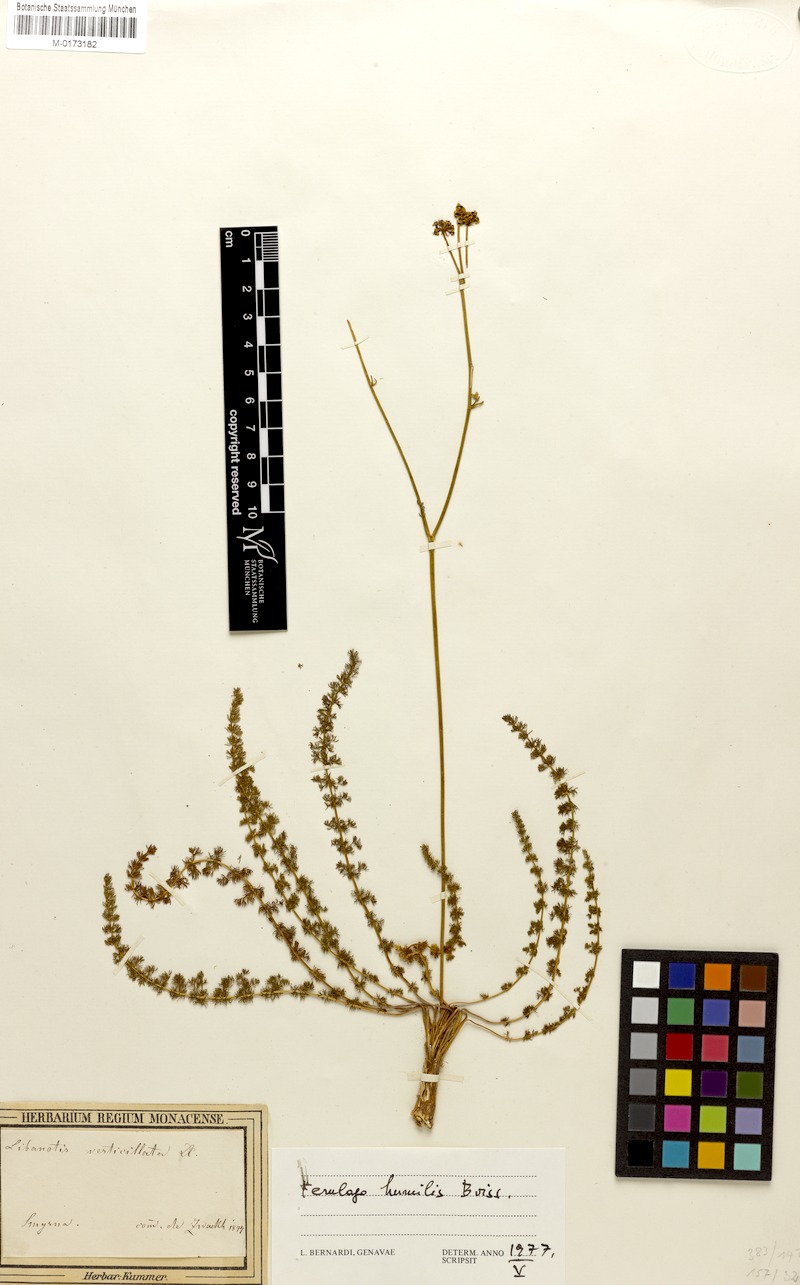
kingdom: Plantae
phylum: Tracheophyta
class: Magnoliopsida
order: Apiales
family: Apiaceae
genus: Ferulago
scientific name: Ferulago humilis
